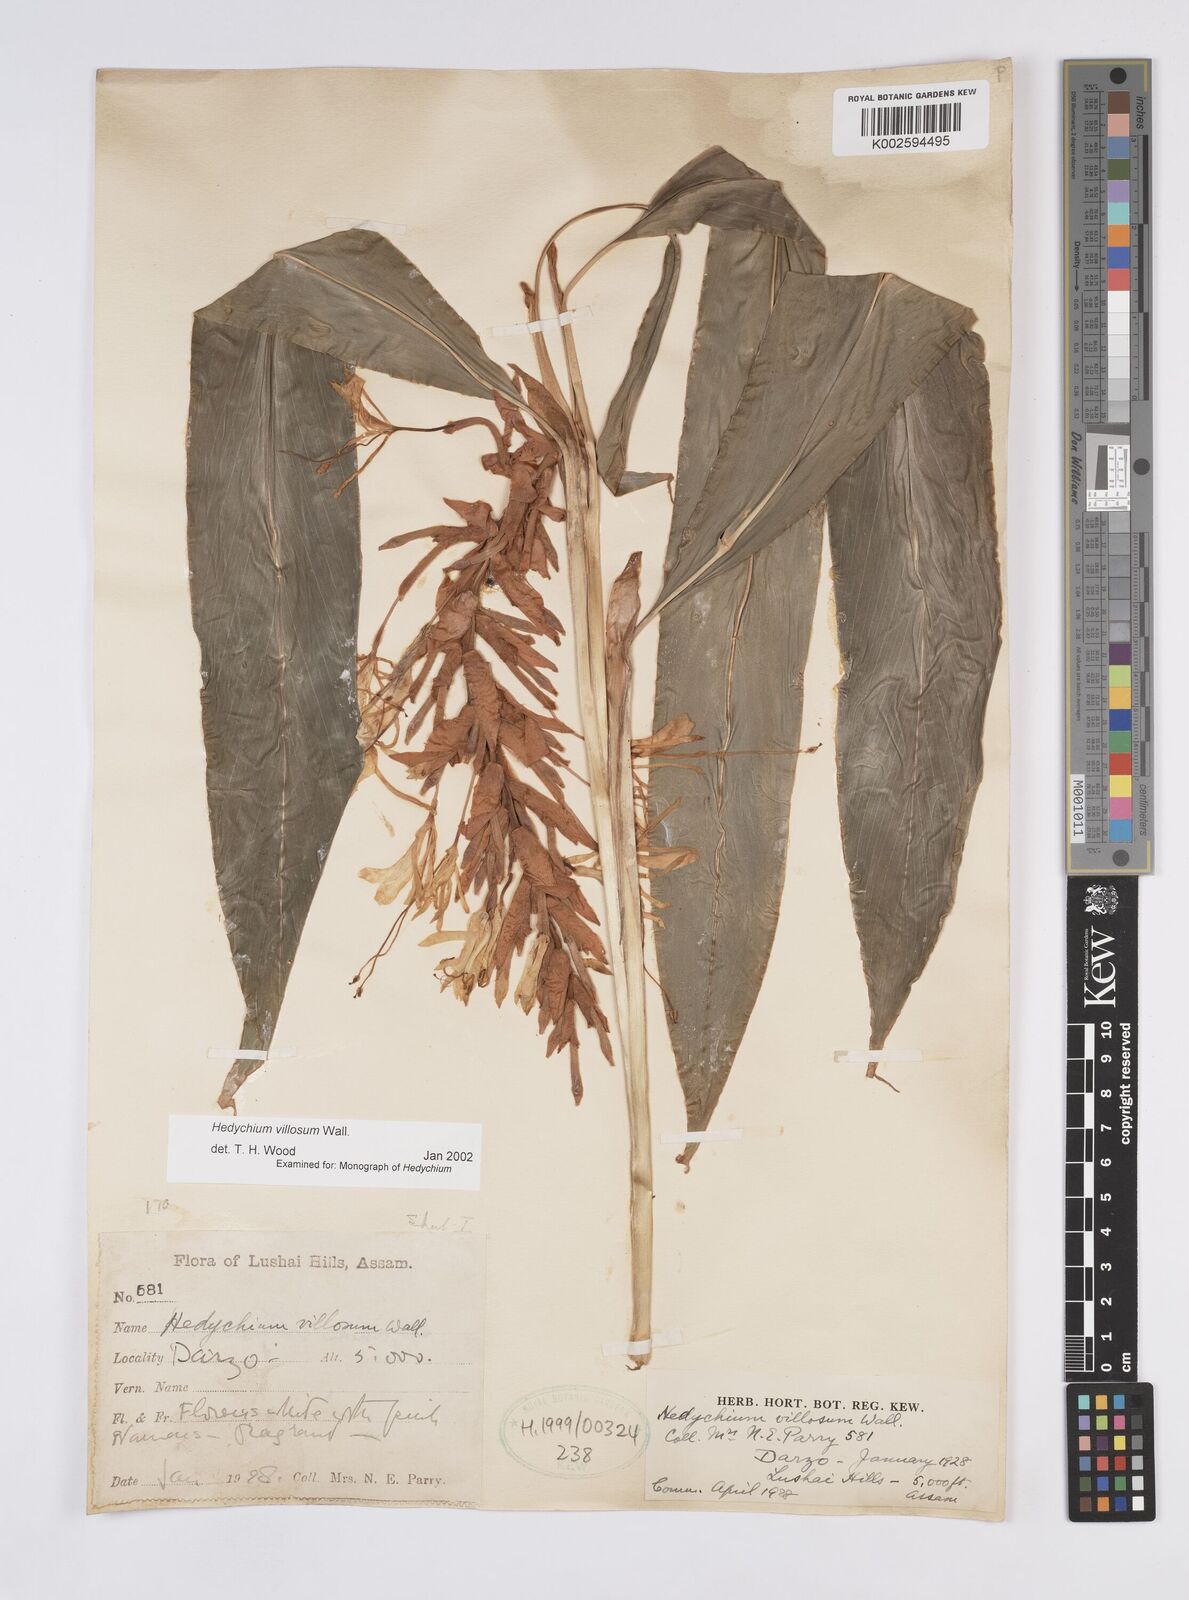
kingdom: Plantae
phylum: Tracheophyta
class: Liliopsida
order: Zingiberales
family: Zingiberaceae
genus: Hedychium
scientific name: Hedychium villosum
